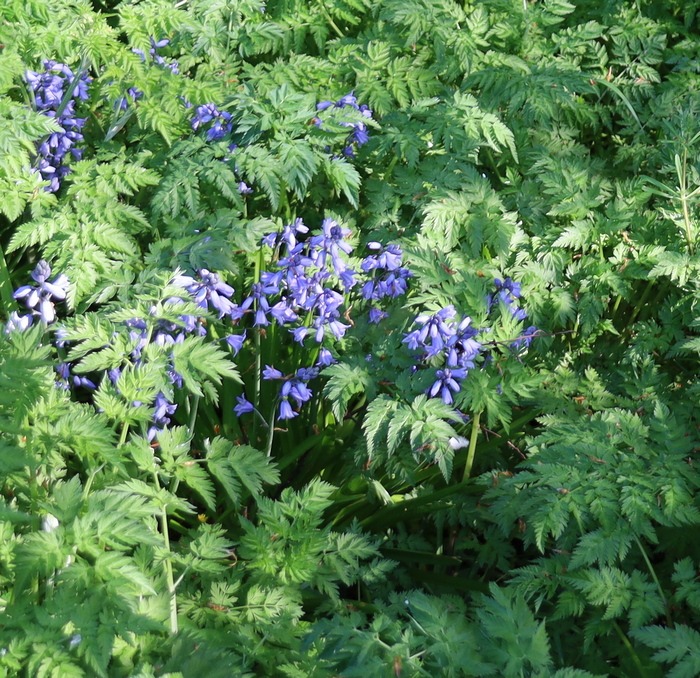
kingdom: Plantae
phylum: Tracheophyta
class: Liliopsida
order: Asparagales
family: Asparagaceae
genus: Hyacinthoides
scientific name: Hyacinthoides massartiana
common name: Hybrid-klokkeskilla
